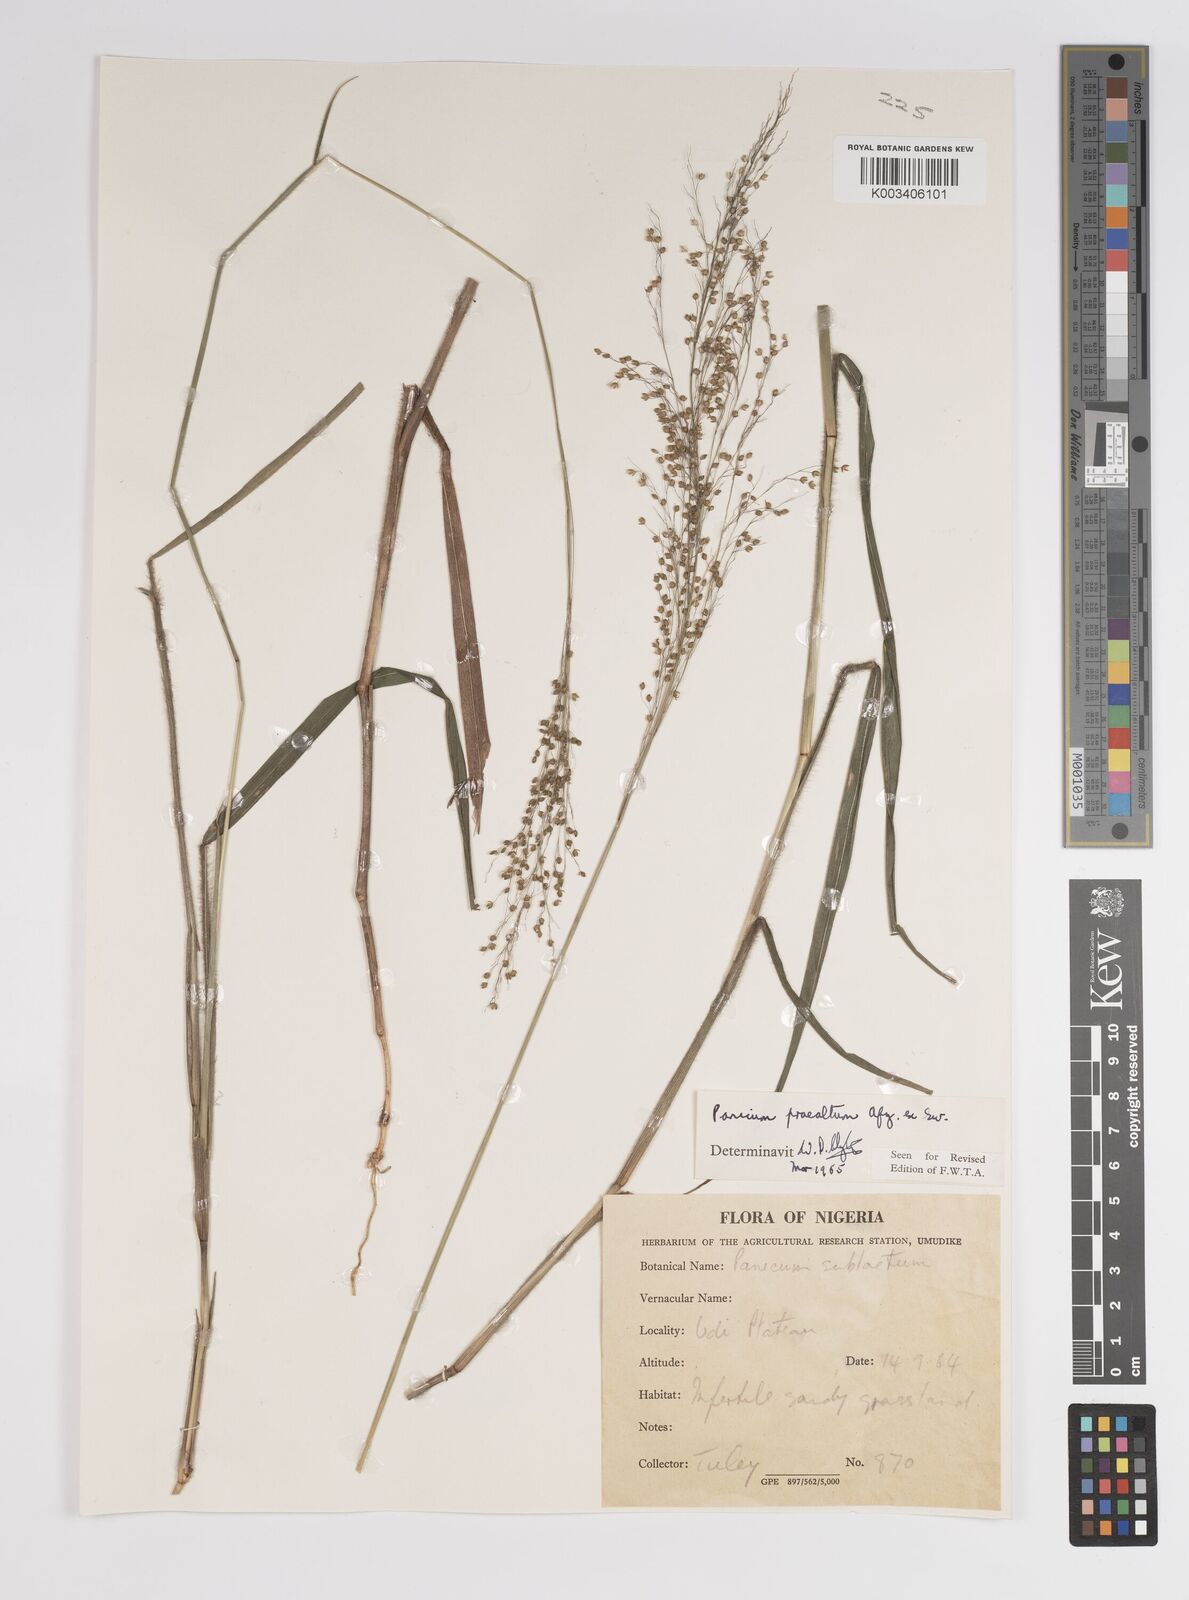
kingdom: Plantae
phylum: Tracheophyta
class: Liliopsida
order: Poales
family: Poaceae
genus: Trichanthecium
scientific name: Trichanthecium praealtum
